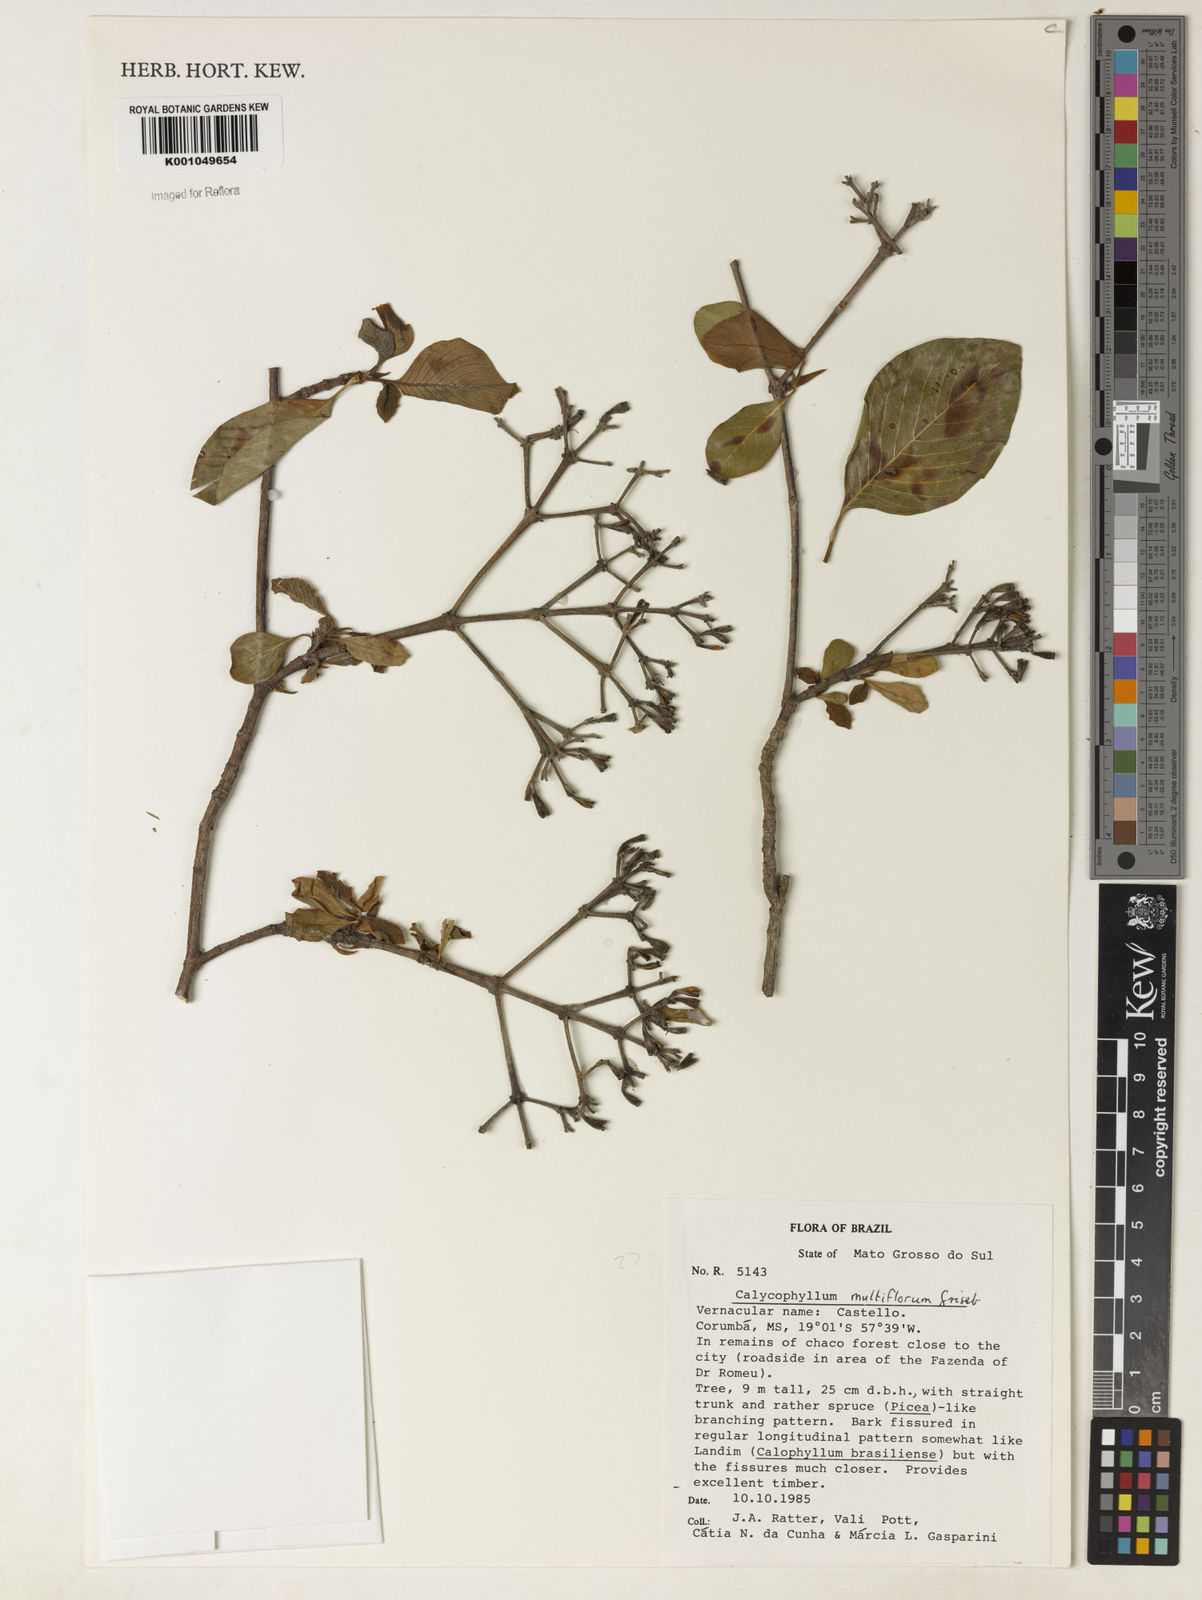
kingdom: Plantae
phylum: Tracheophyta
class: Magnoliopsida
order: Gentianales
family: Rubiaceae
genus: Calycophyllum
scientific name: Calycophyllum multiflorum
